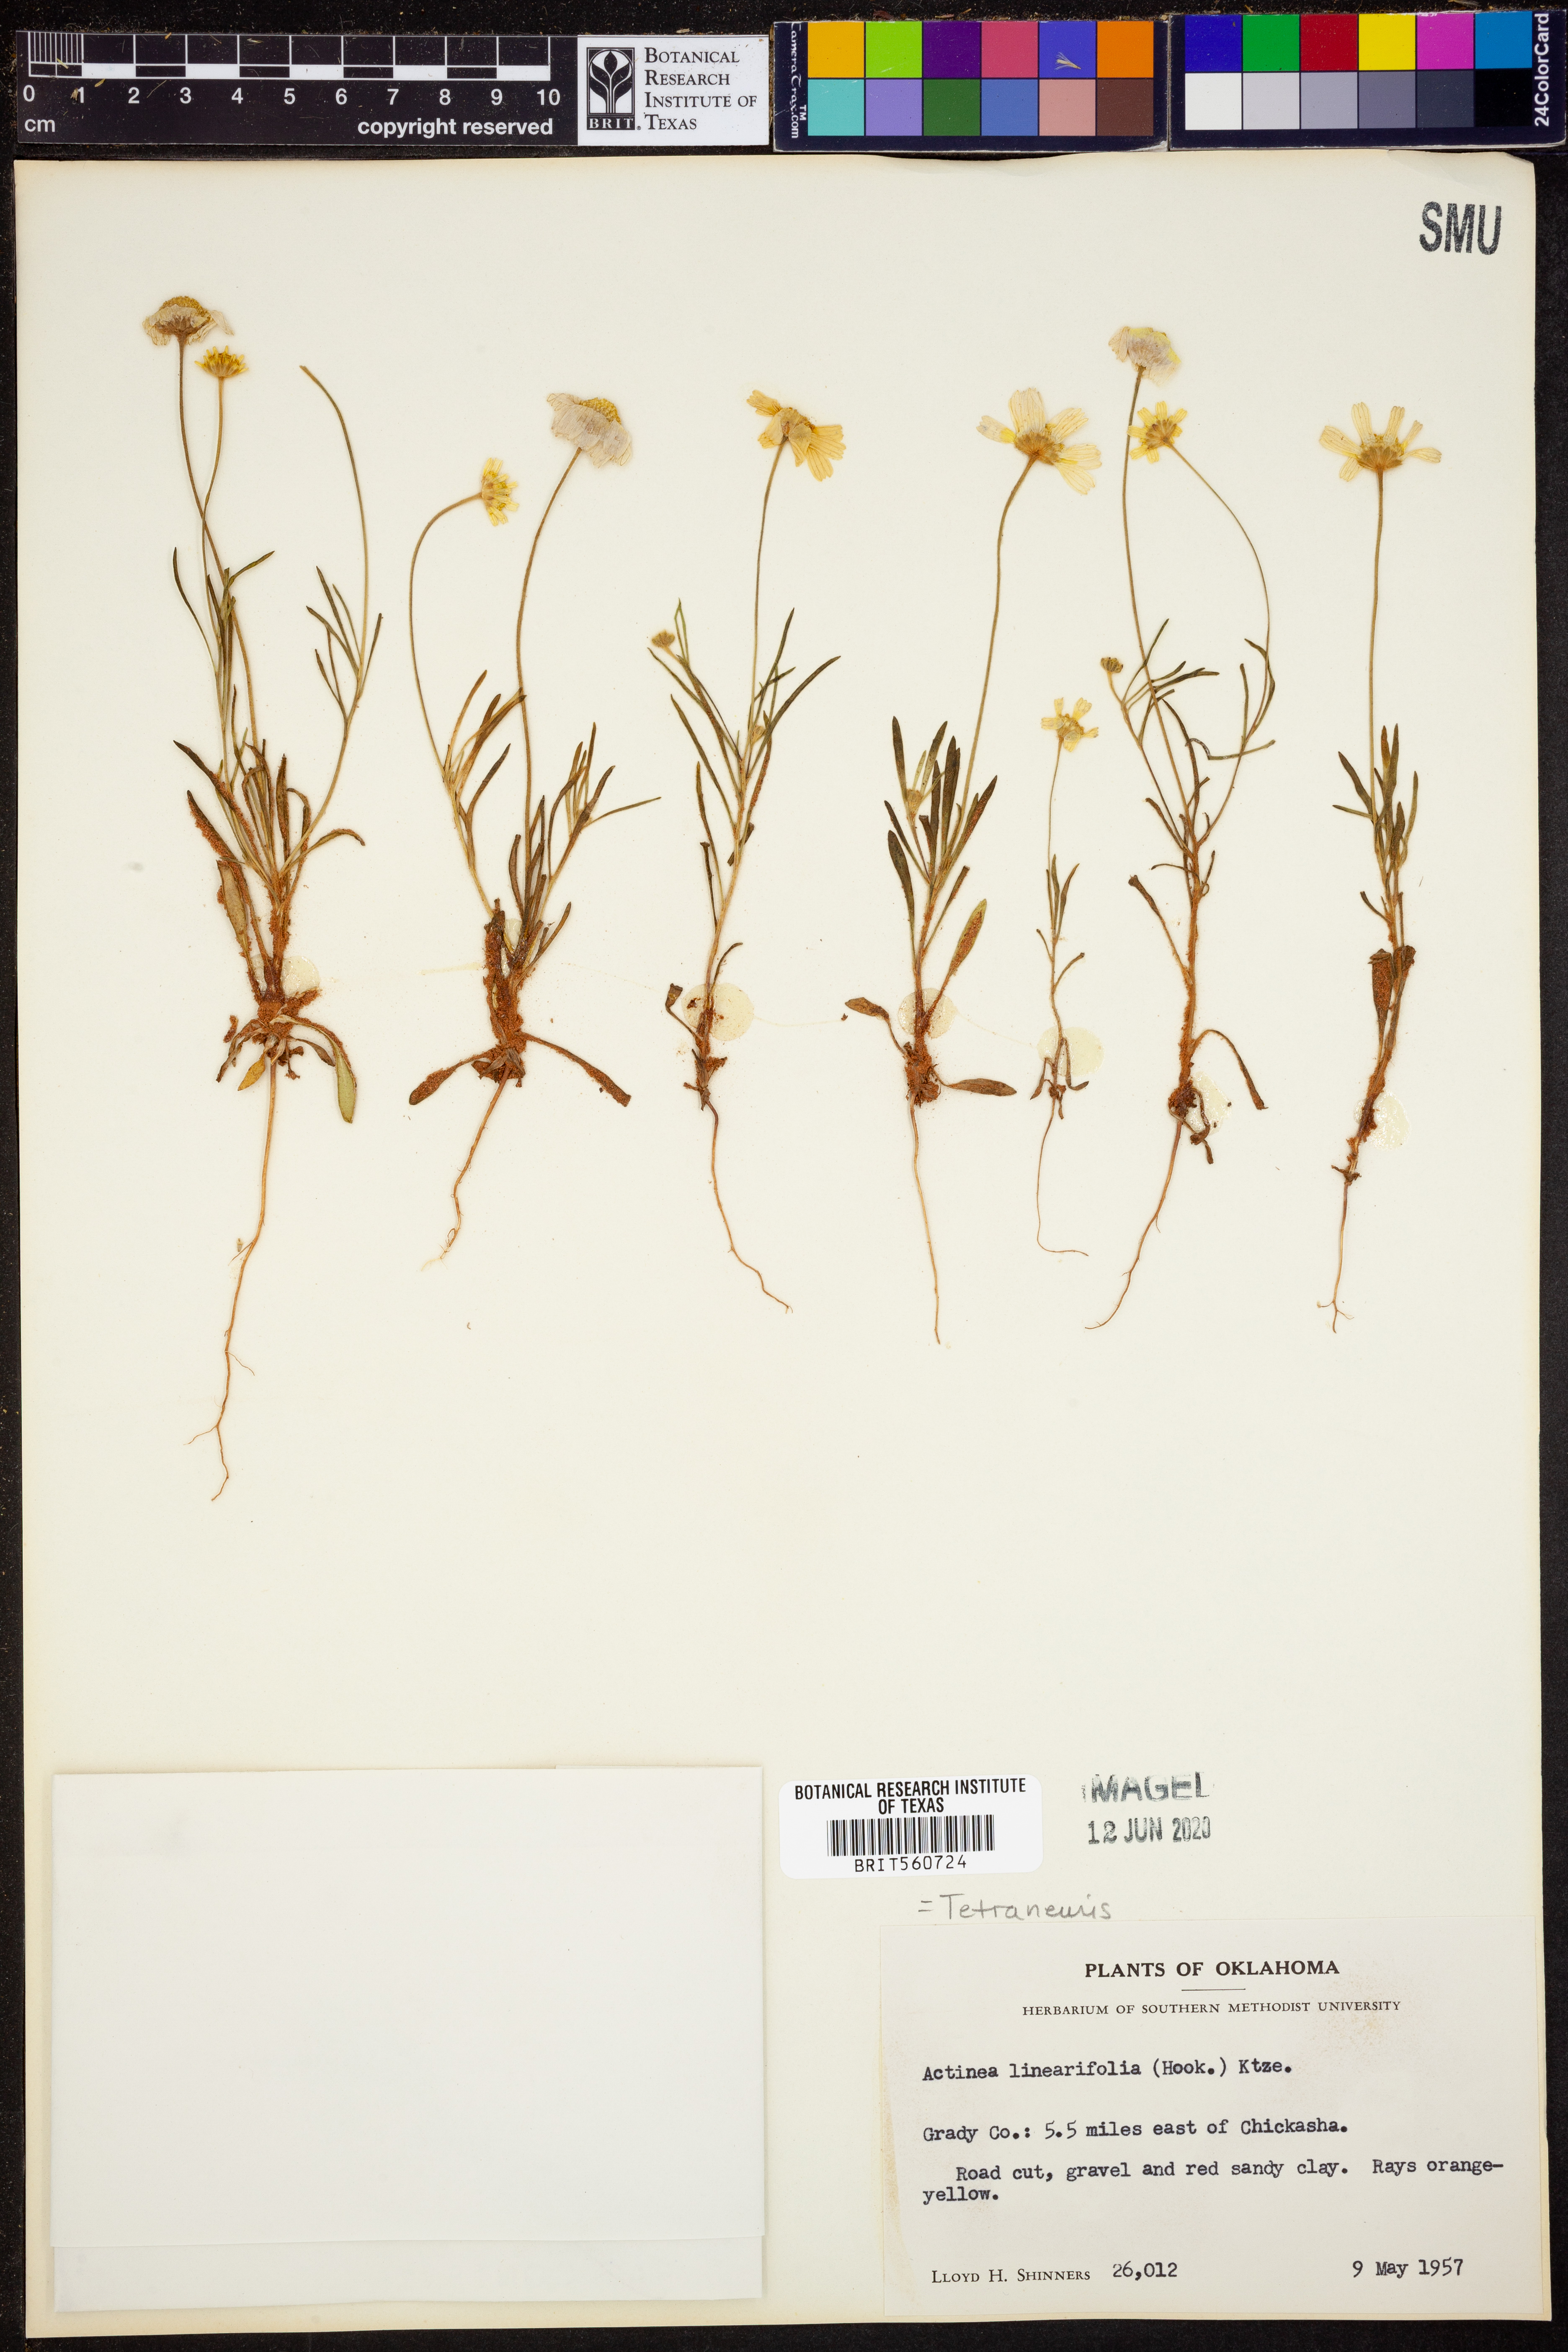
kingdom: Plantae
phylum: Tracheophyta
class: Magnoliopsida
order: Asterales
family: Asteraceae
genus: Tetraneuris
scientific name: Tetraneuris linearifolia
